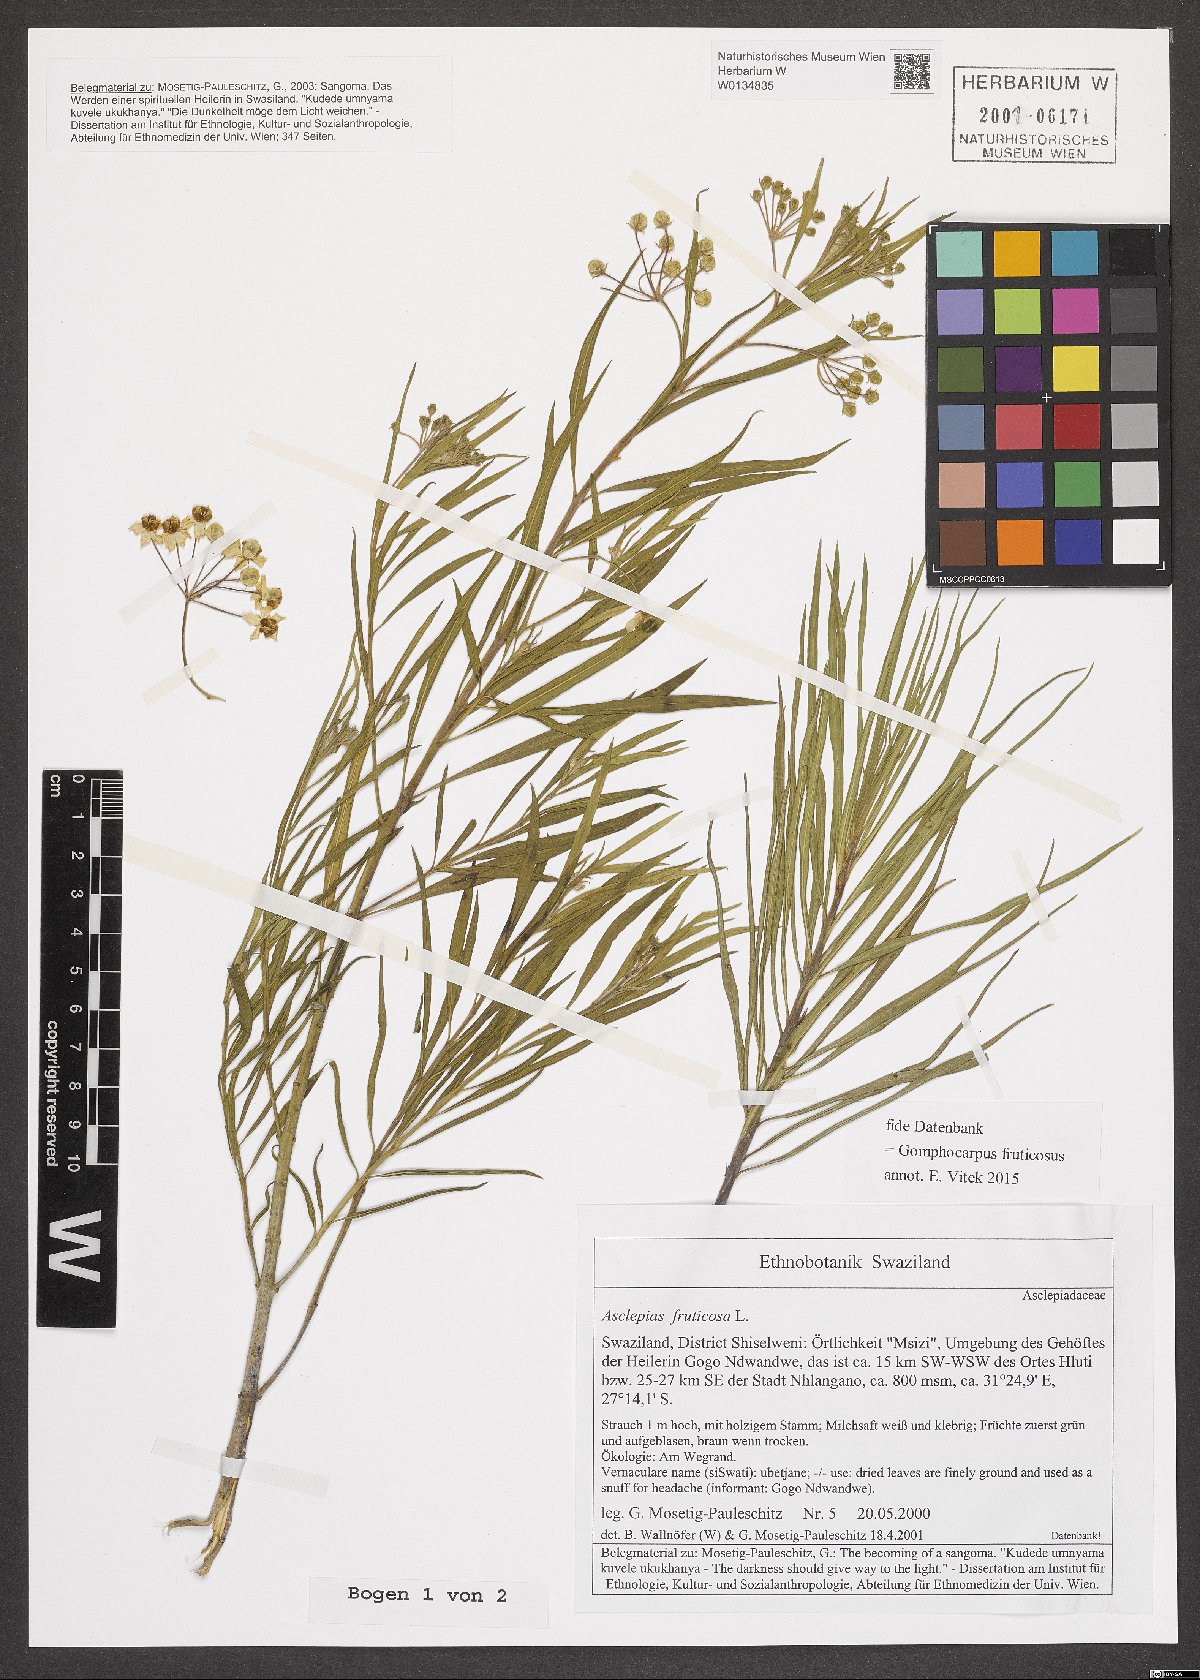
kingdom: Plantae
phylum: Tracheophyta
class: Magnoliopsida
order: Gentianales
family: Apocynaceae
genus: Gomphocarpus
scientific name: Gomphocarpus fruticosus
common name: Milkweed
